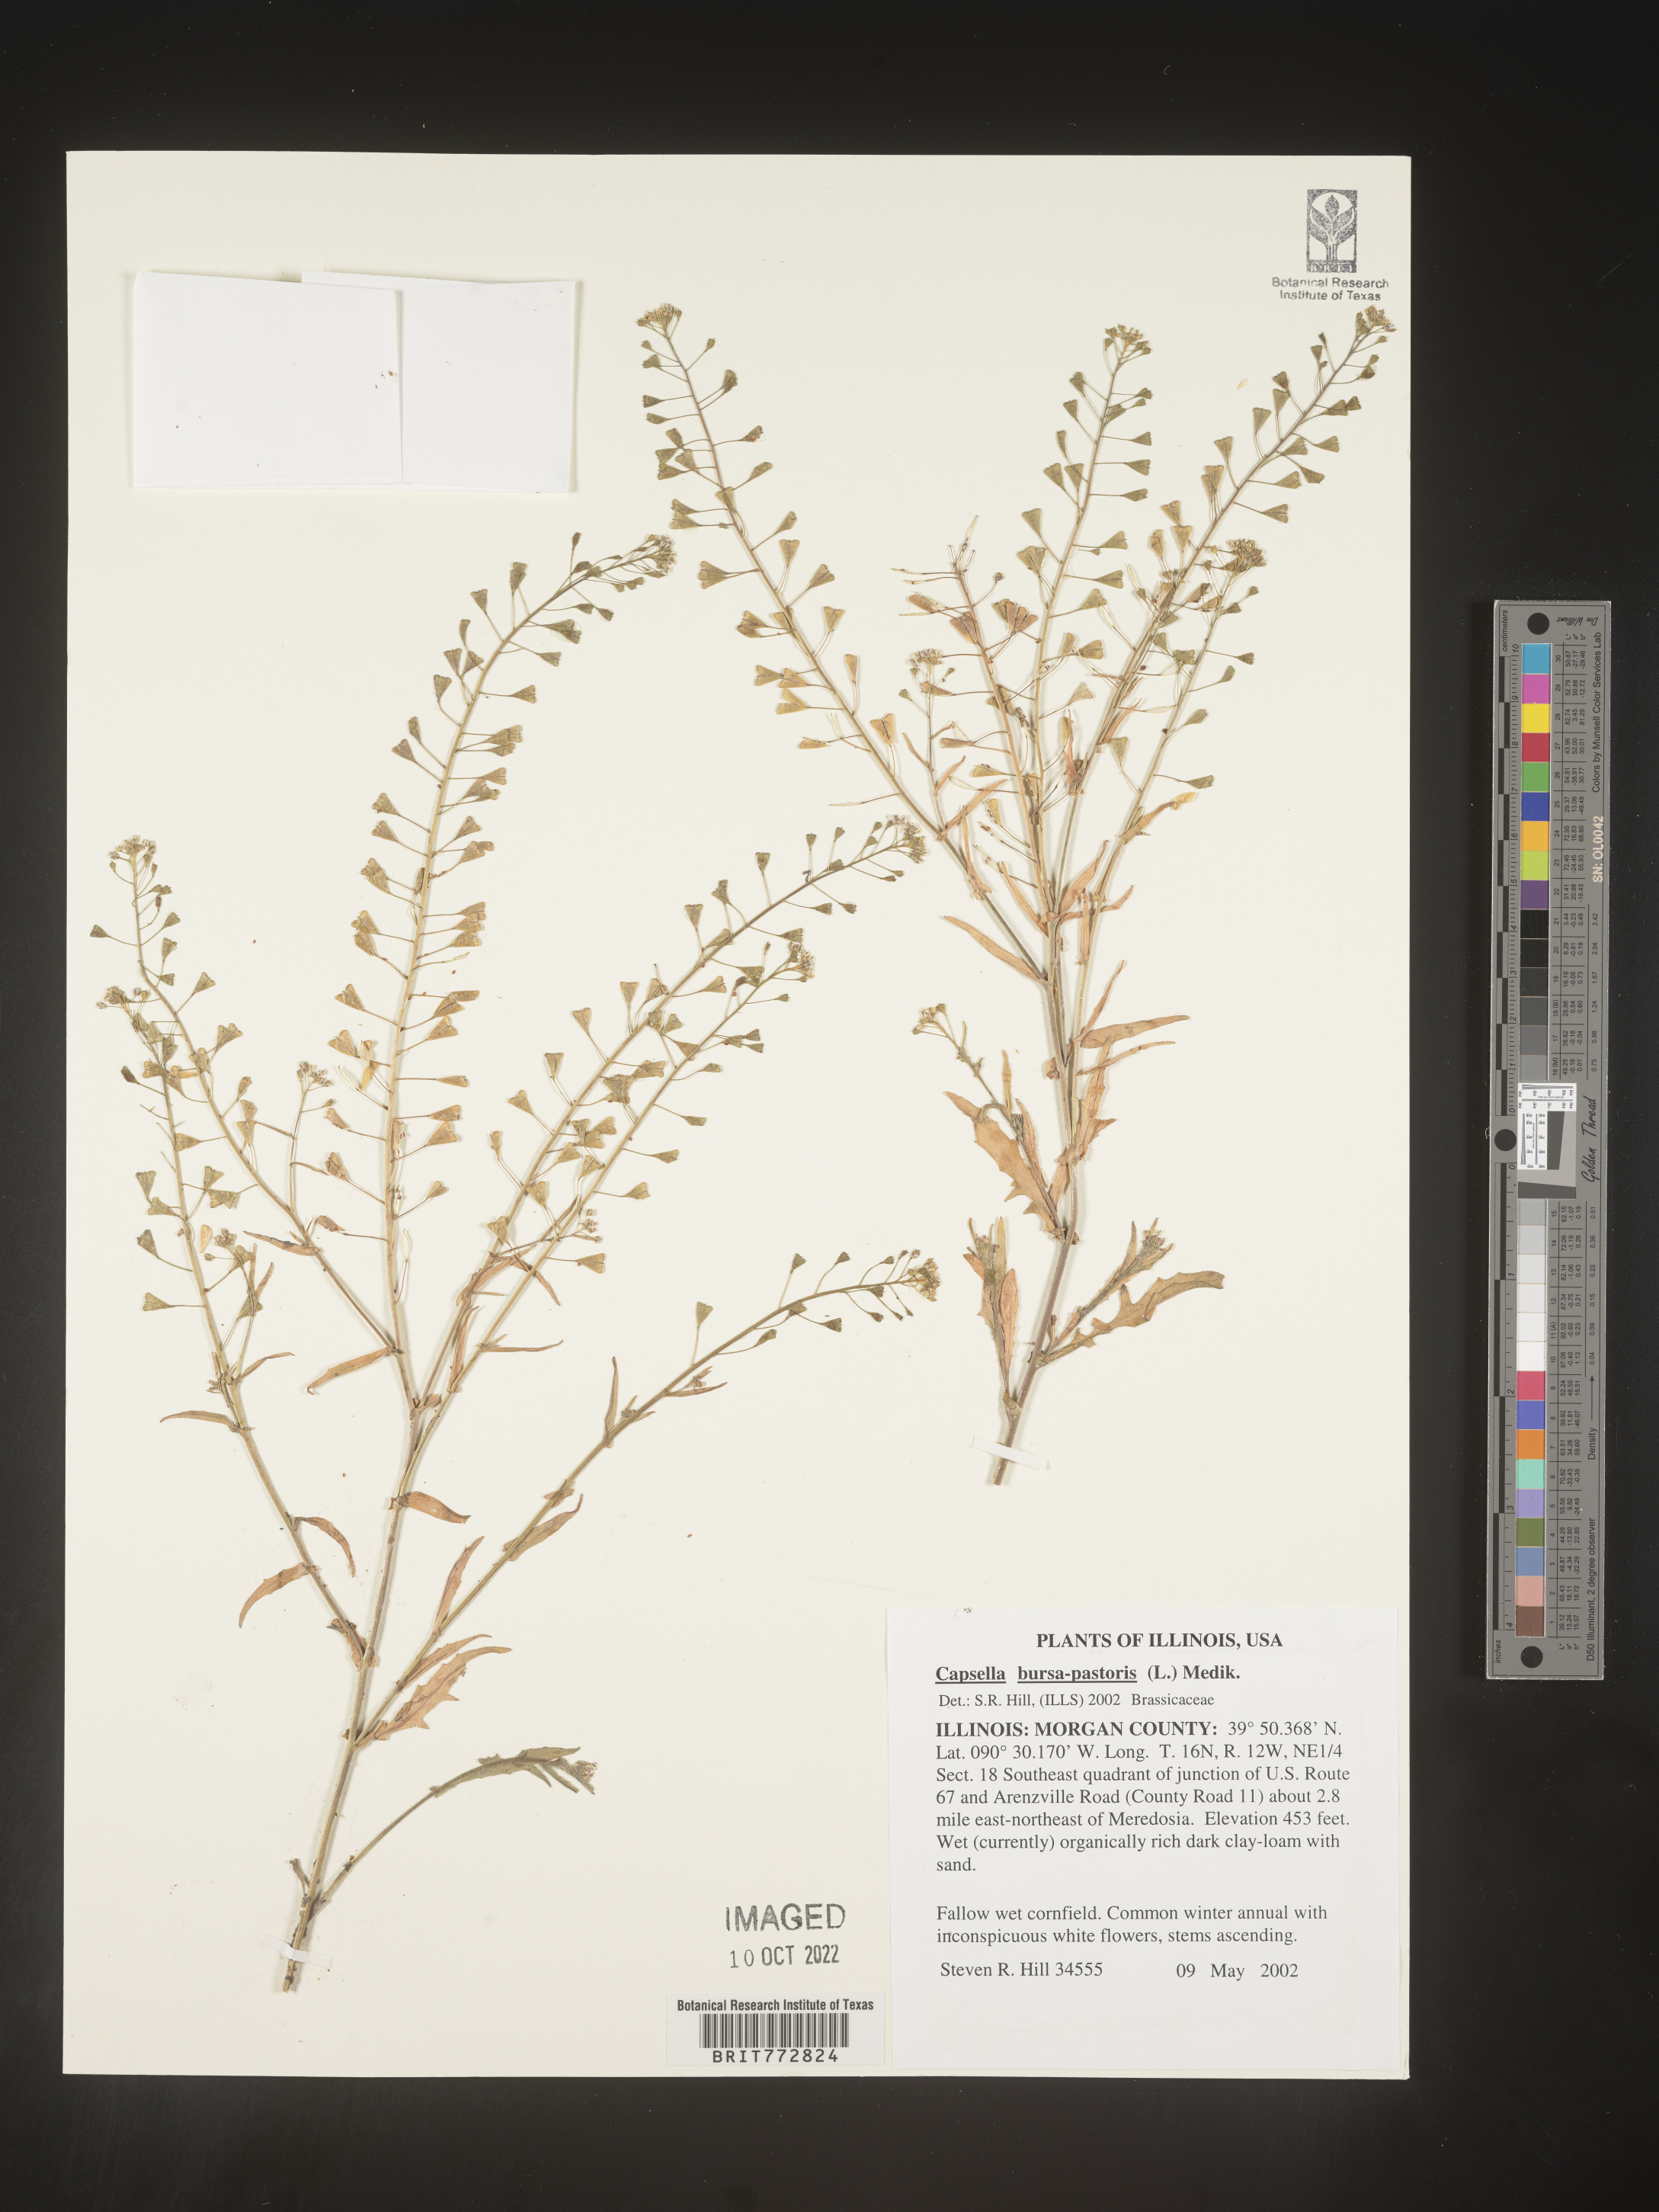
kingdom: Plantae
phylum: Tracheophyta
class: Magnoliopsida
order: Brassicales
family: Brassicaceae
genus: Capsella
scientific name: Capsella bursa-pastoris
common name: Shepherd's purse
